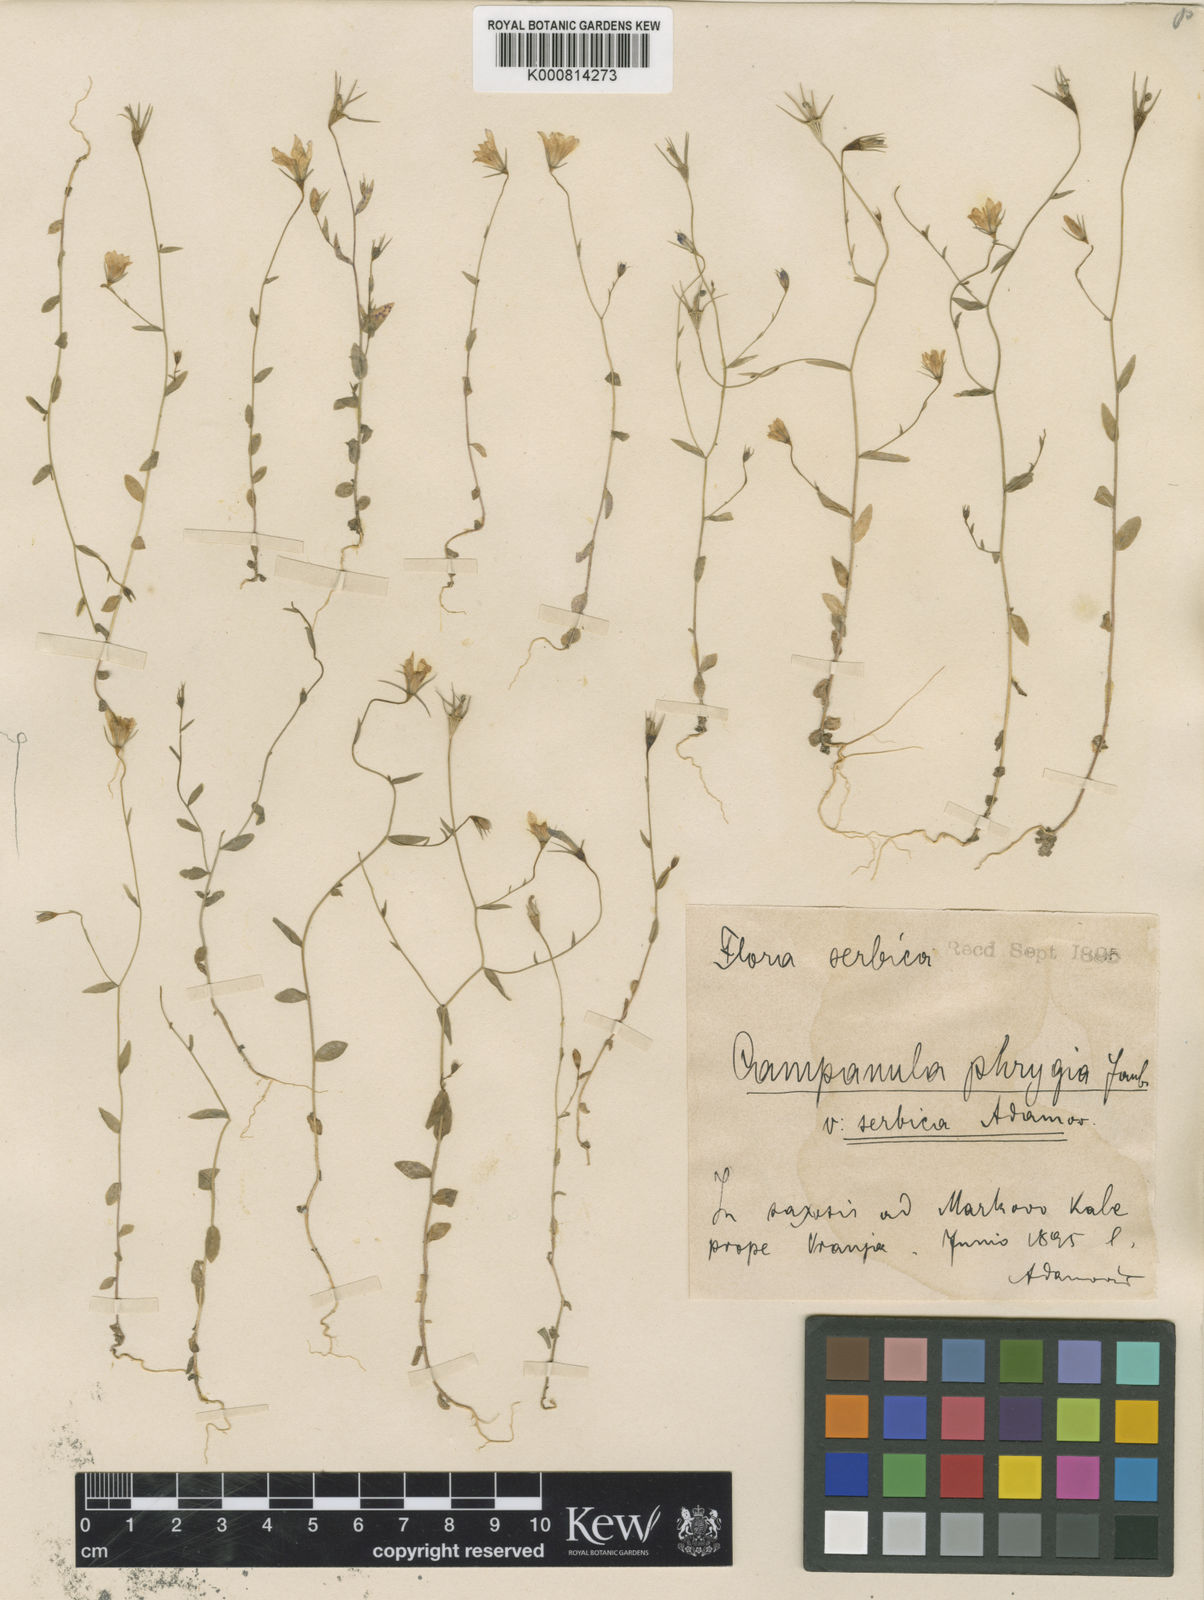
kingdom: Plantae
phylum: Tracheophyta
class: Magnoliopsida
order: Asterales
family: Campanulaceae
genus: Campanula
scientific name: Campanula phrygia
